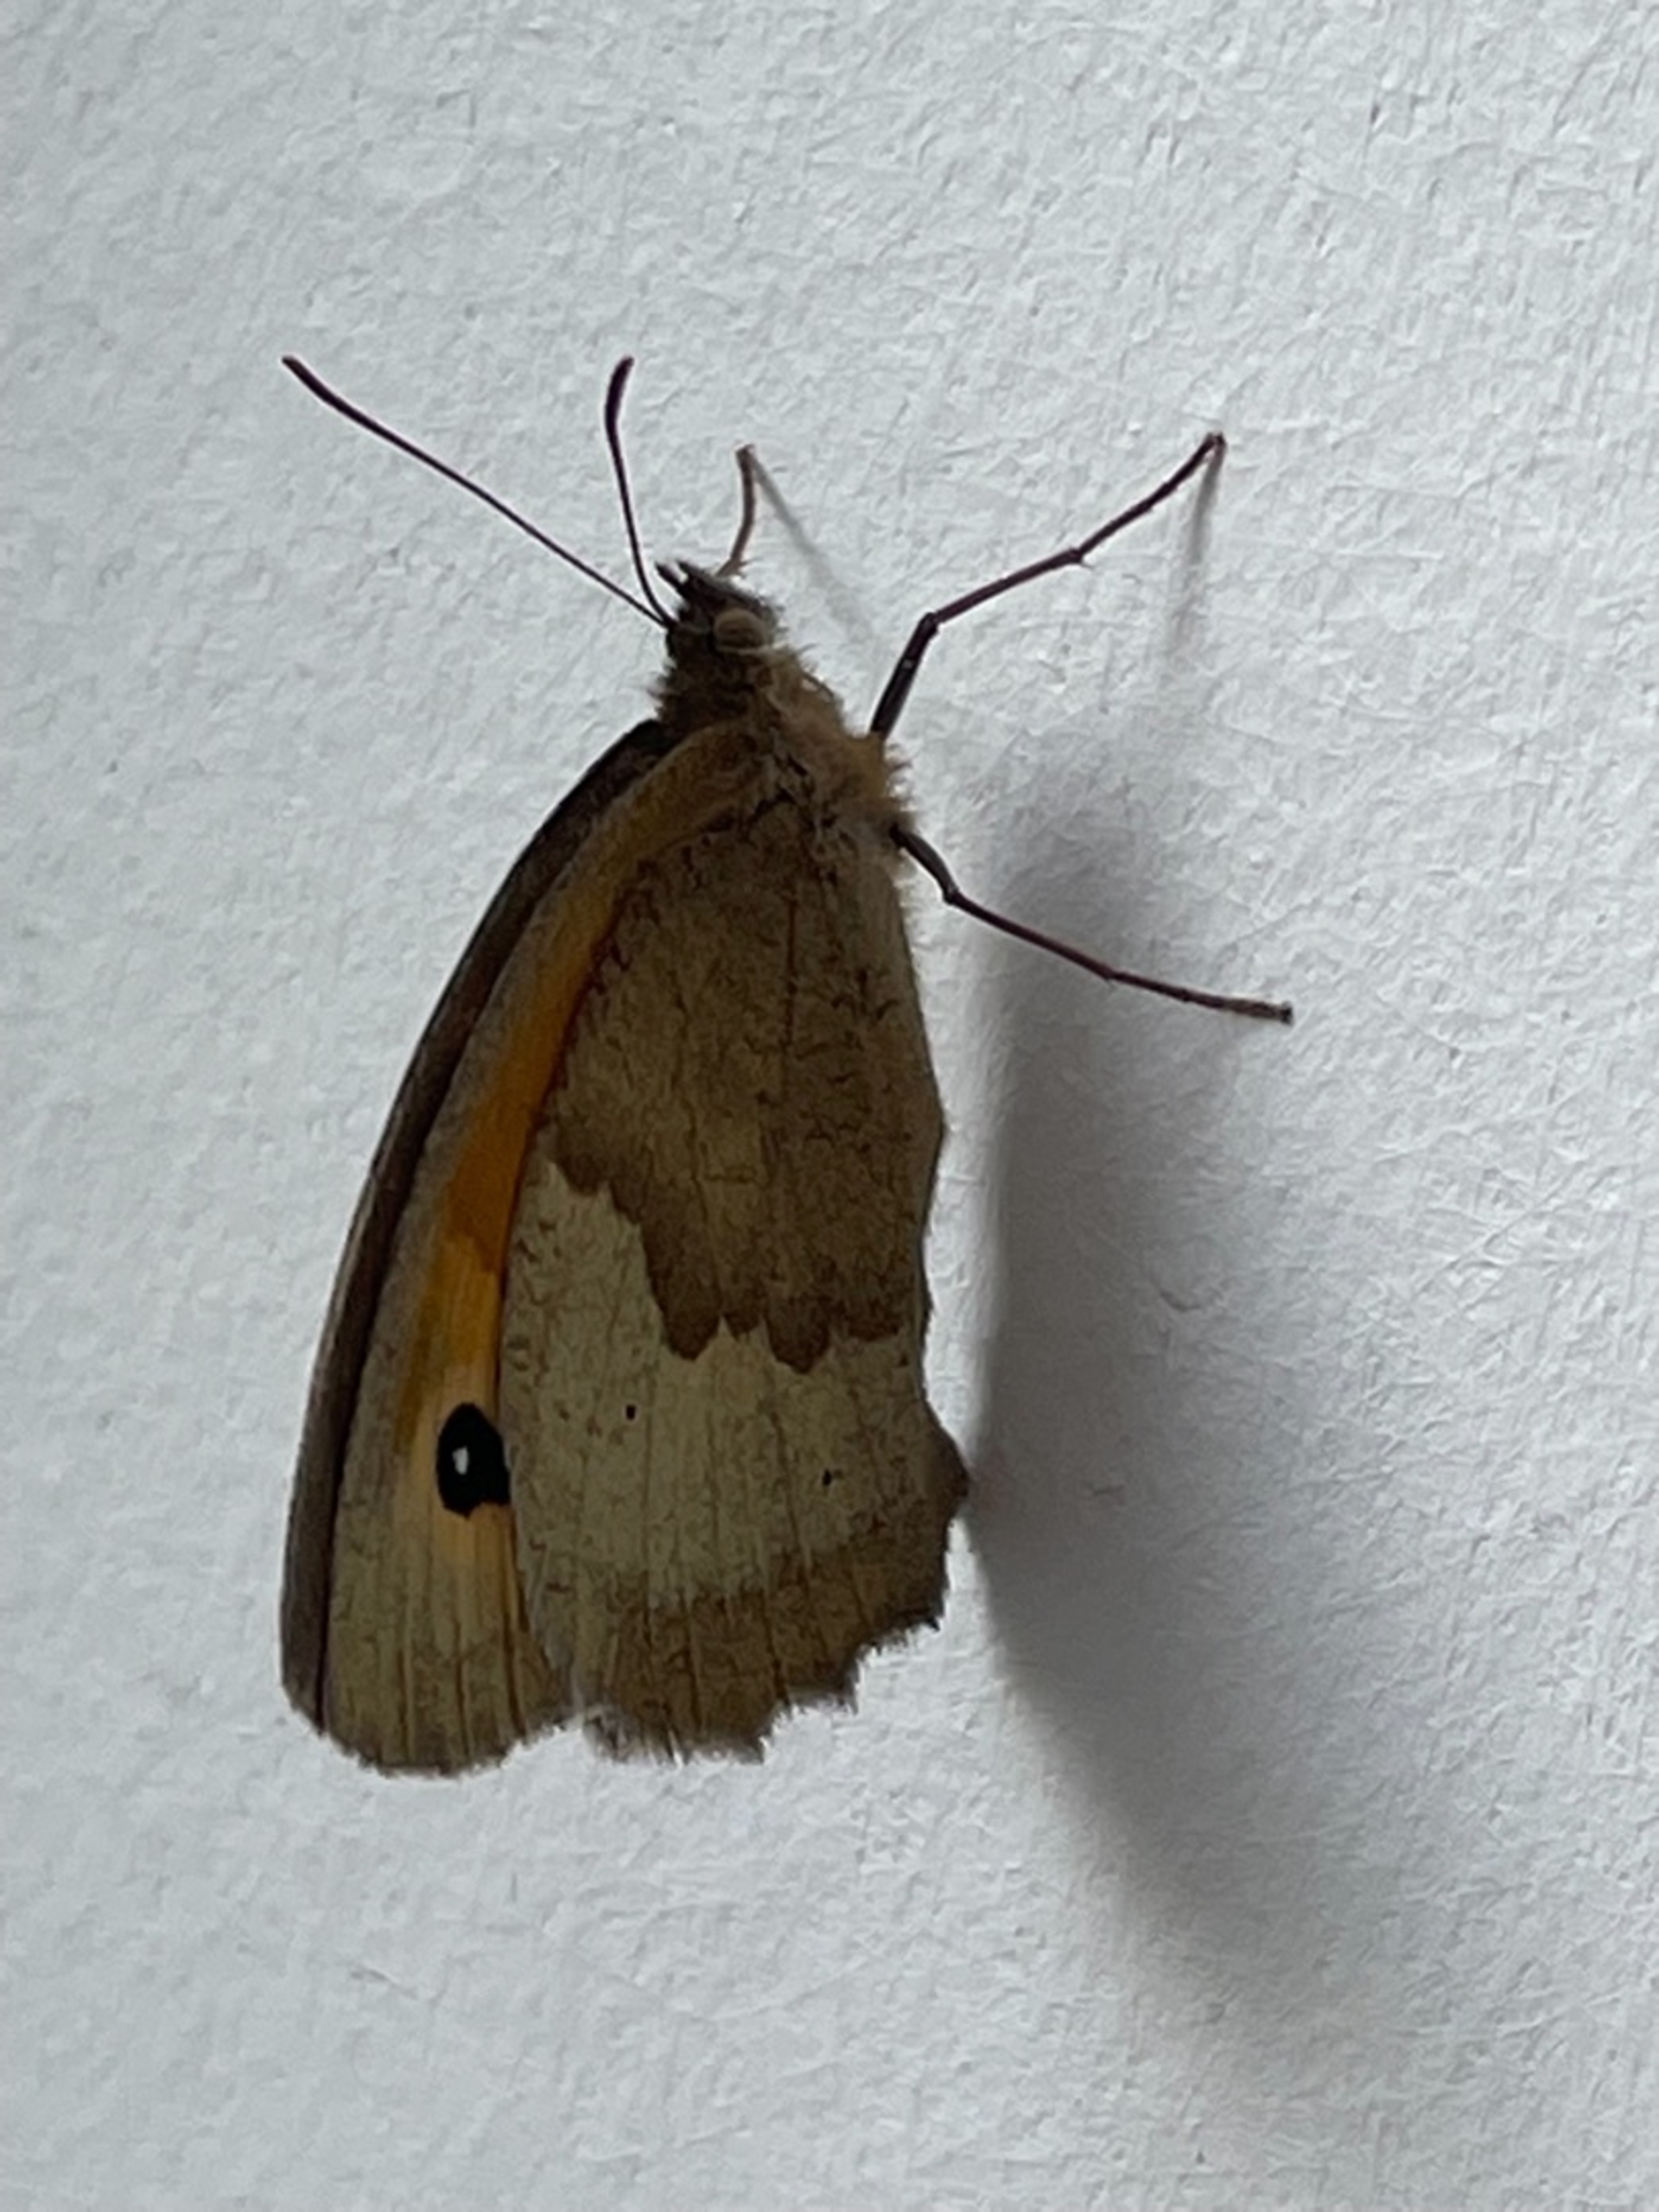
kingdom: Animalia
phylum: Arthropoda
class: Insecta
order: Lepidoptera
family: Nymphalidae
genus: Maniola
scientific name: Maniola jurtina
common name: Græsrandøje
